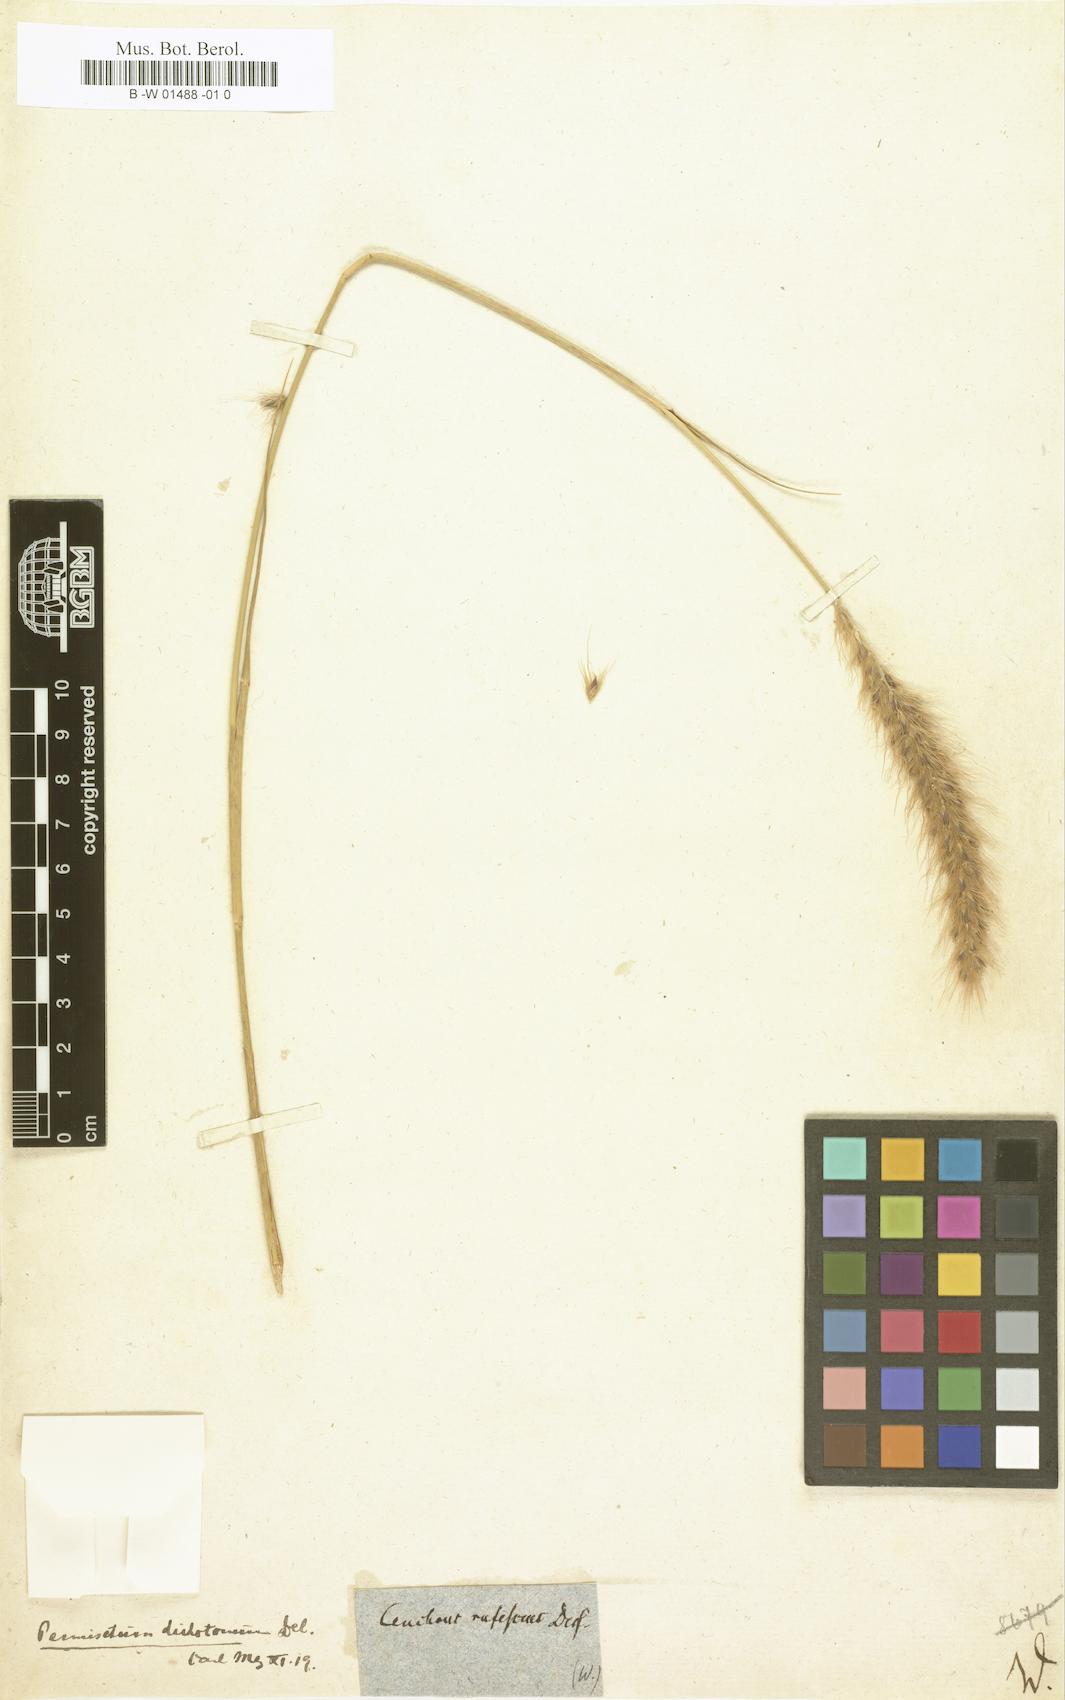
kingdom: Plantae
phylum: Tracheophyta
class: Liliopsida
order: Poales
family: Poaceae
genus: Cenchrus
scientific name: Cenchrus ciliaris
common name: Buffelgrass
